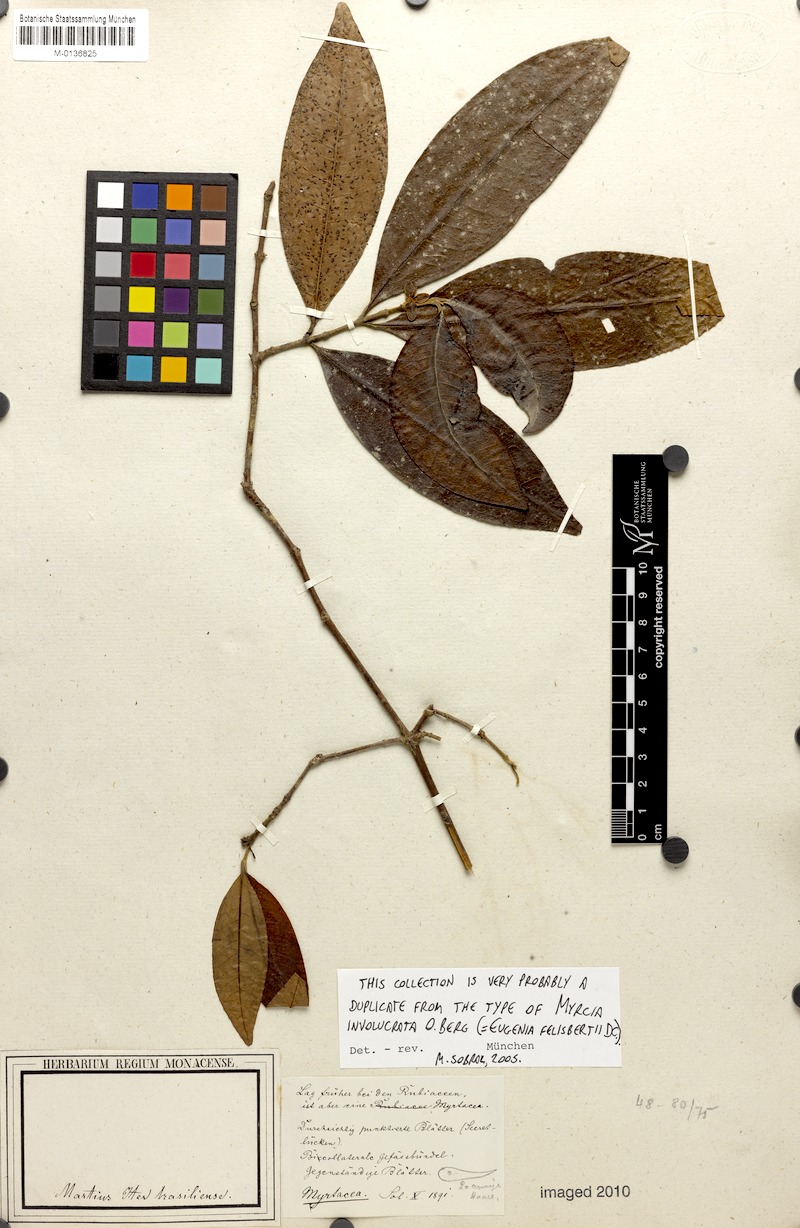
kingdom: Plantae
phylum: Tracheophyta
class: Magnoliopsida
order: Myrtales
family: Myrtaceae
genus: Myrcia
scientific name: Myrcia felisbertii
